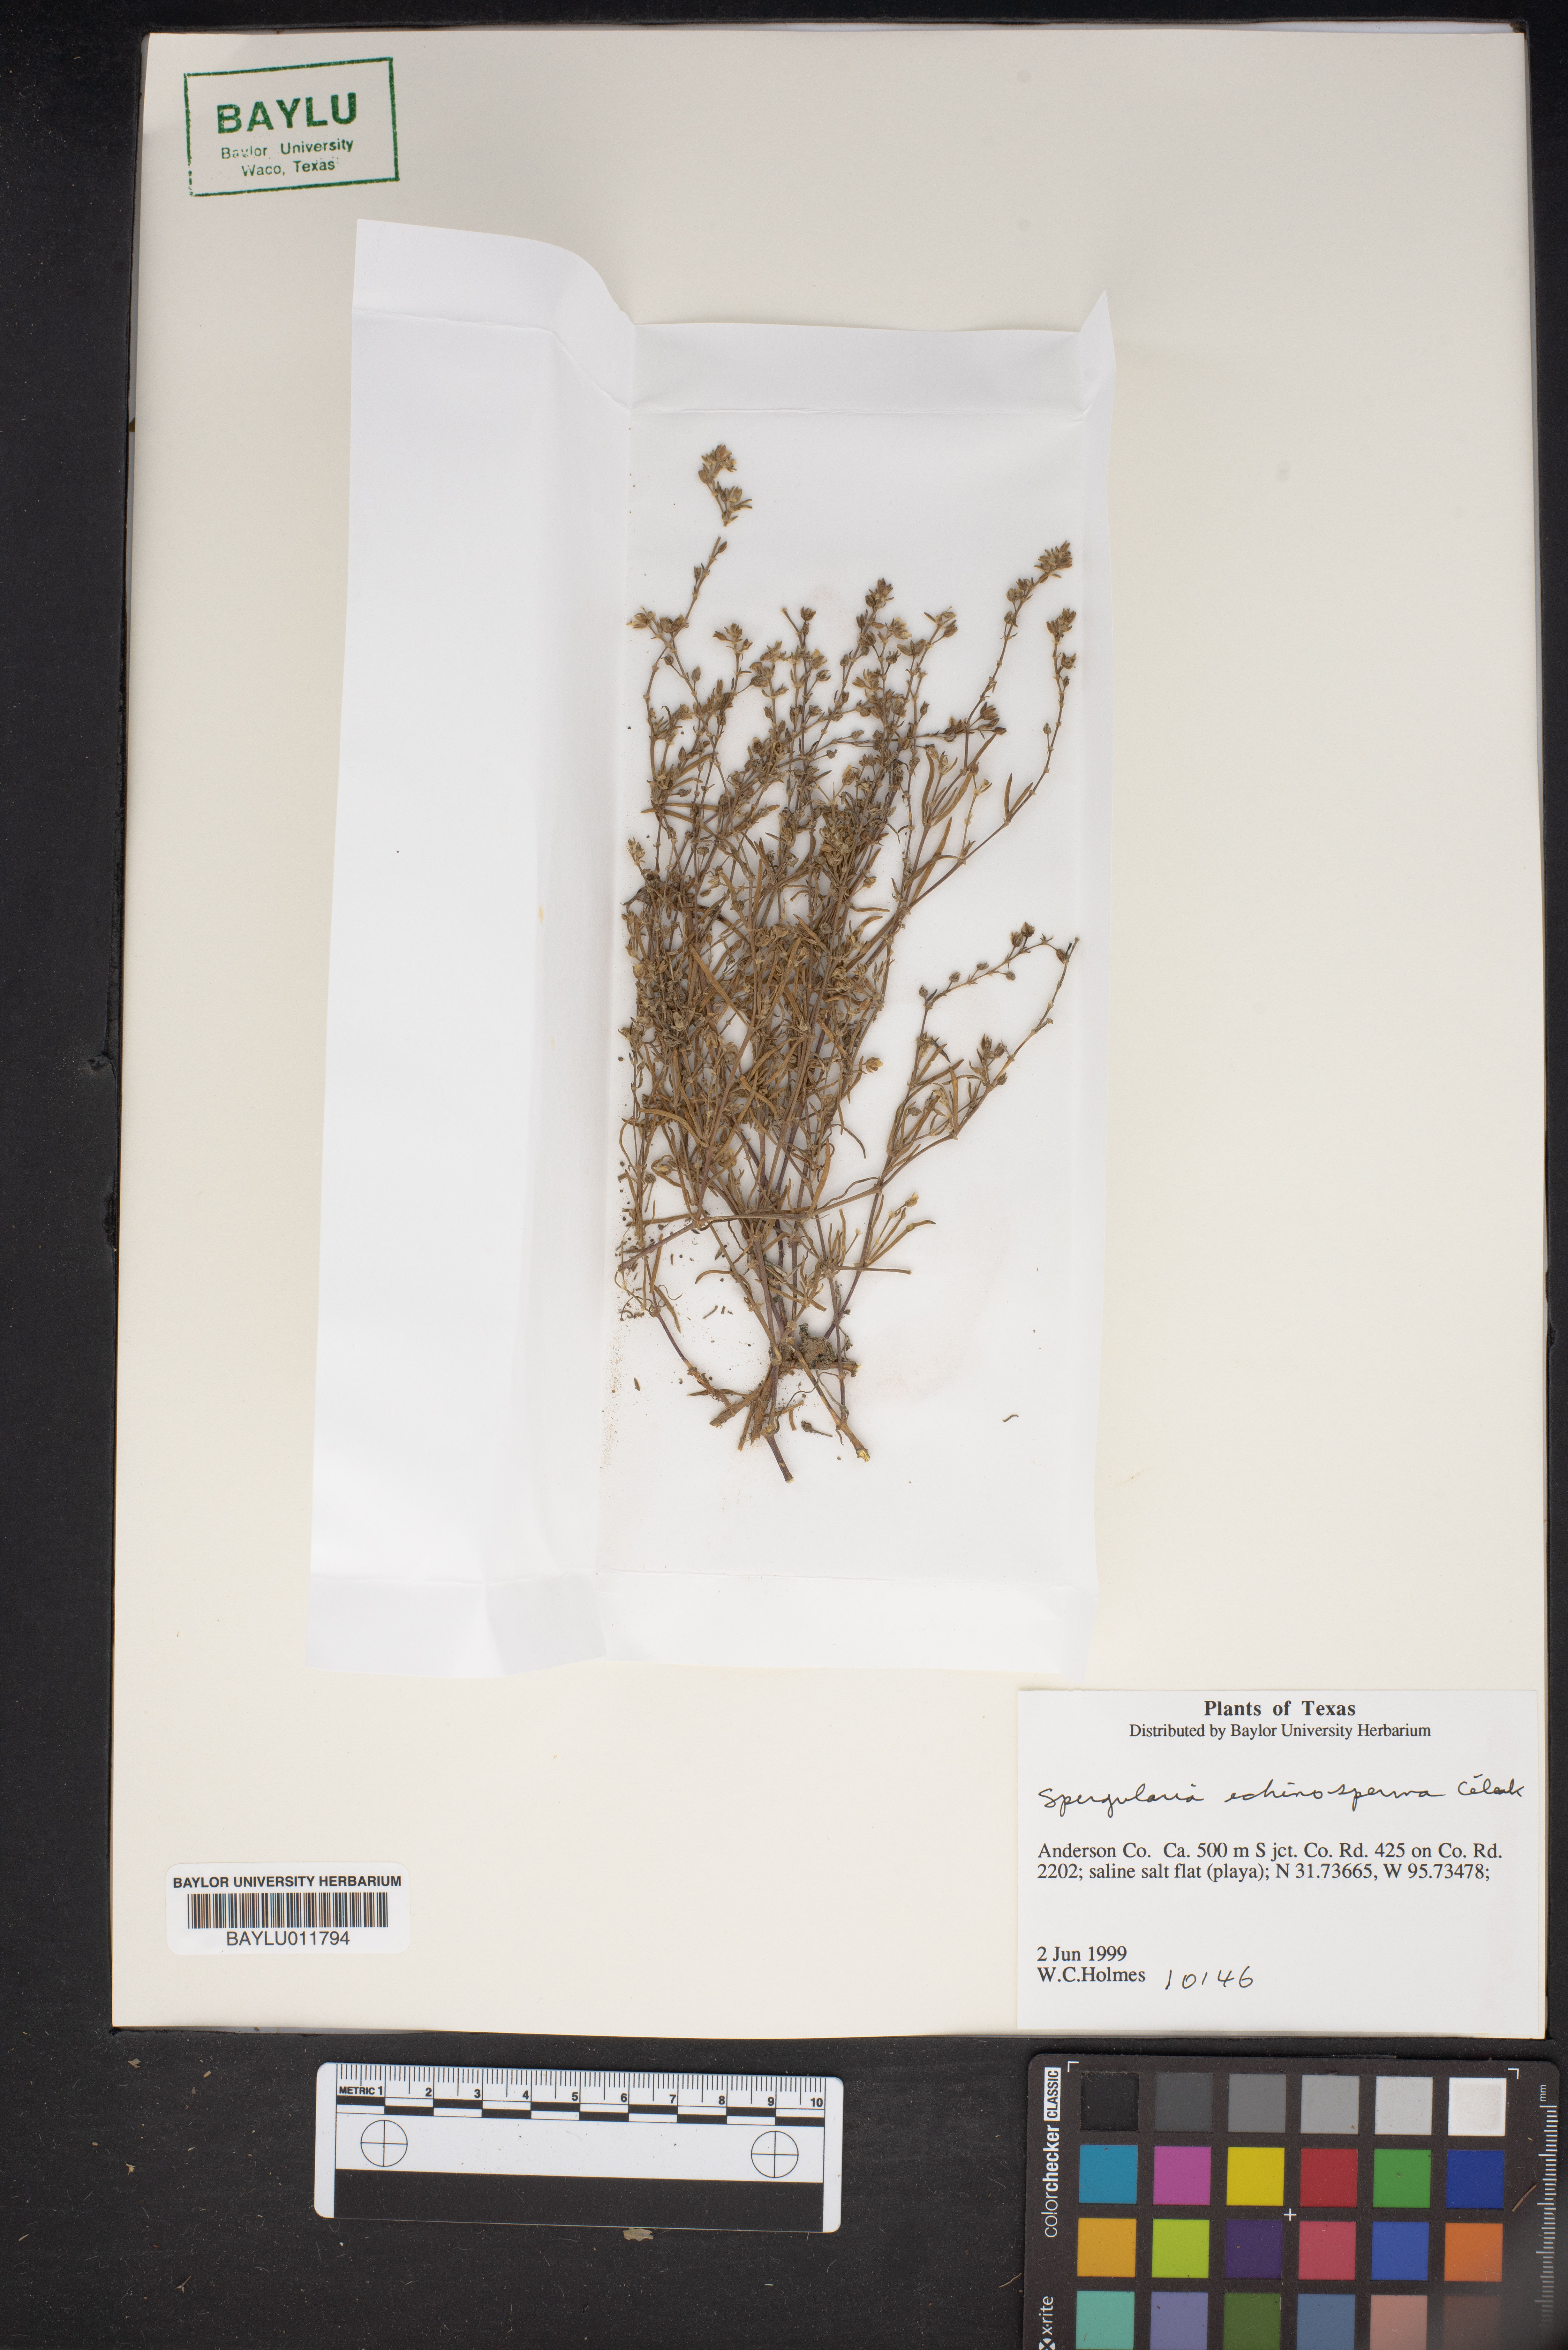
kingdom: Plantae
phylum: Tracheophyta
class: Magnoliopsida
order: Caryophyllales
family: Caryophyllaceae
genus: Spergularia
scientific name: Spergularia echinosperma
